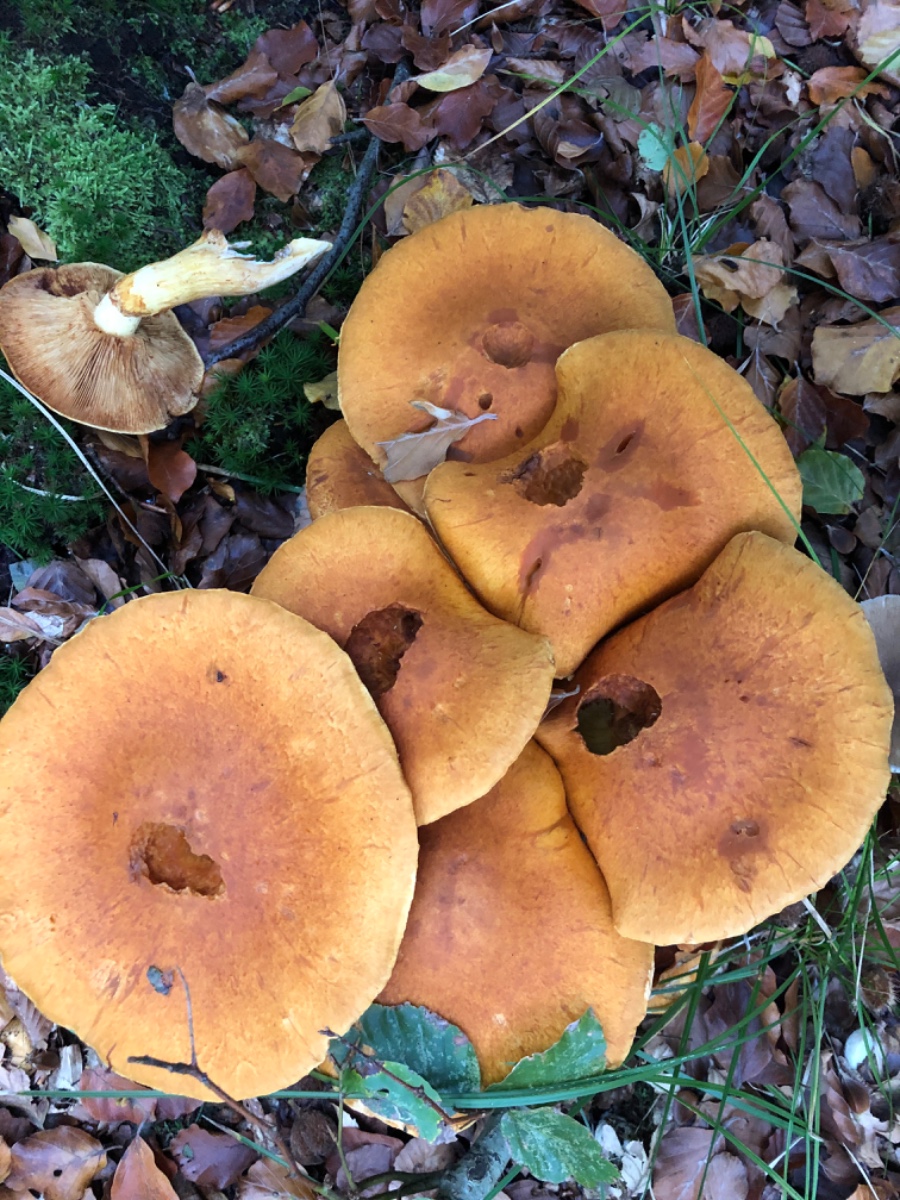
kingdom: Fungi
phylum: Basidiomycota
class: Agaricomycetes
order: Agaricales
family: Hymenogastraceae
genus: Gymnopilus
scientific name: Gymnopilus spectabilis
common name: fibret flammehat
